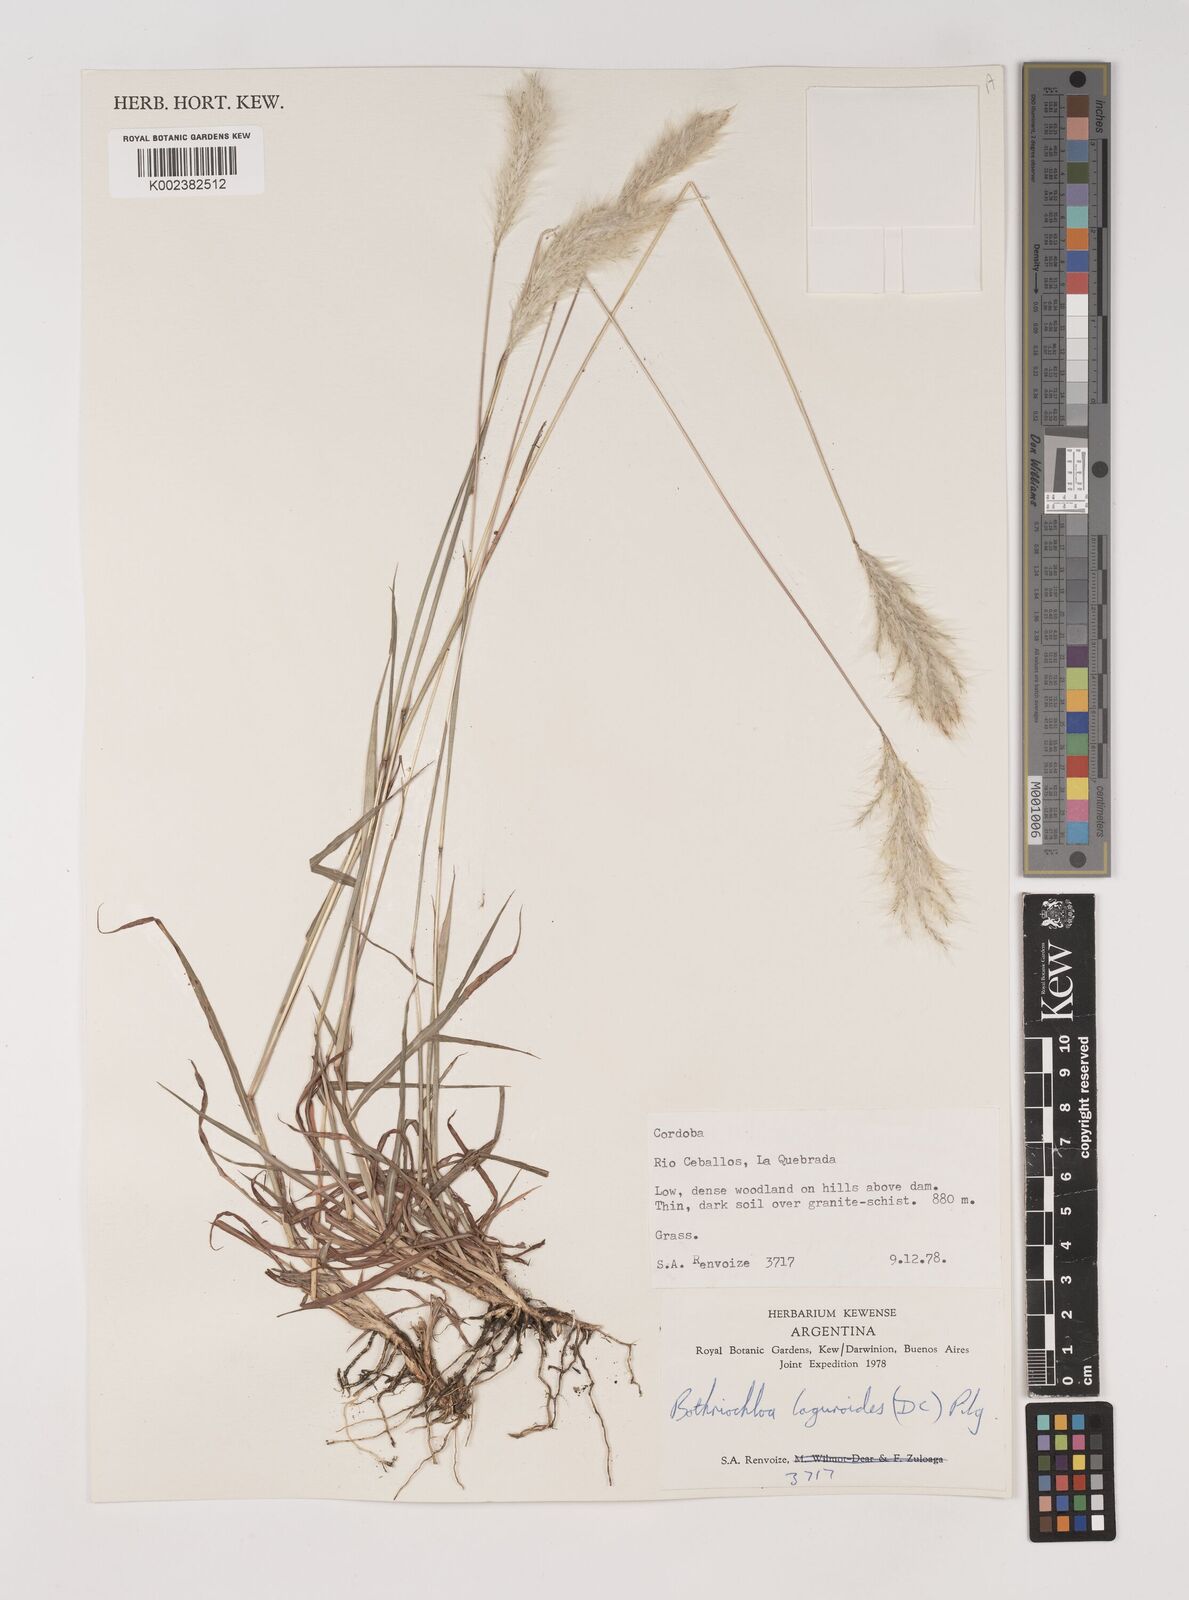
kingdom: Plantae
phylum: Tracheophyta
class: Liliopsida
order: Poales
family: Poaceae
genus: Bothriochloa
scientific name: Bothriochloa laguroides
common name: Silver bluestem
